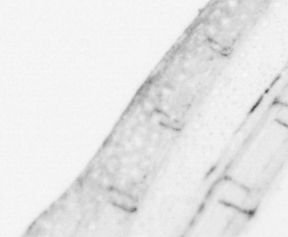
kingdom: Animalia
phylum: Chordata
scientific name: Chordata
